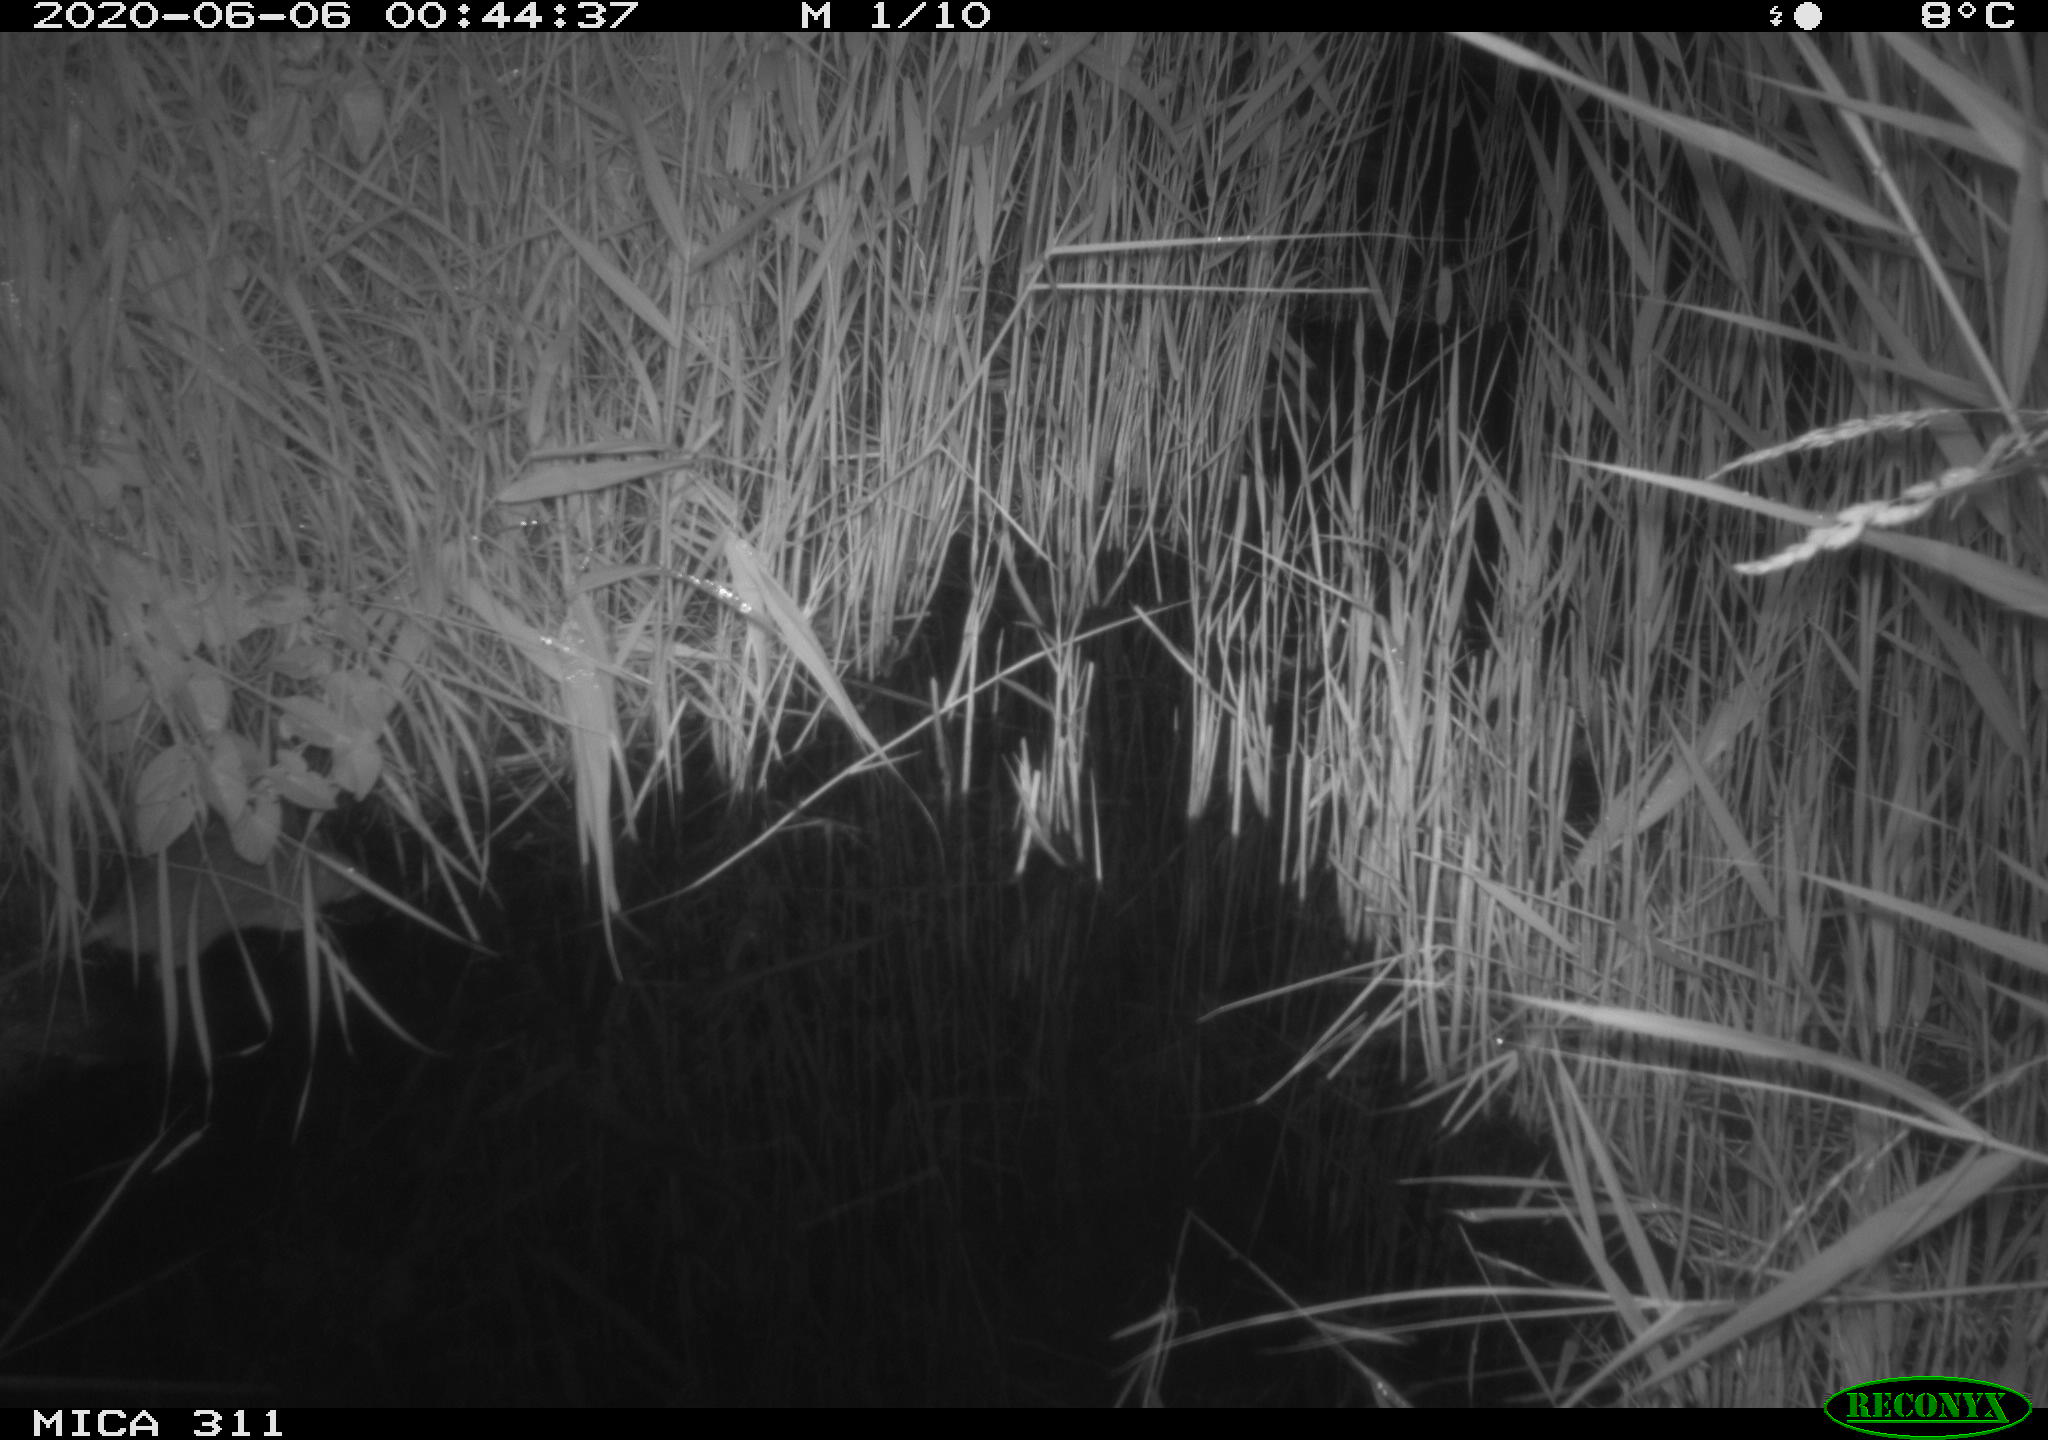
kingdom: Animalia
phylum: Chordata
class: Mammalia
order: Rodentia
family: Muridae
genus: Rattus
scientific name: Rattus norvegicus
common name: Brown rat
